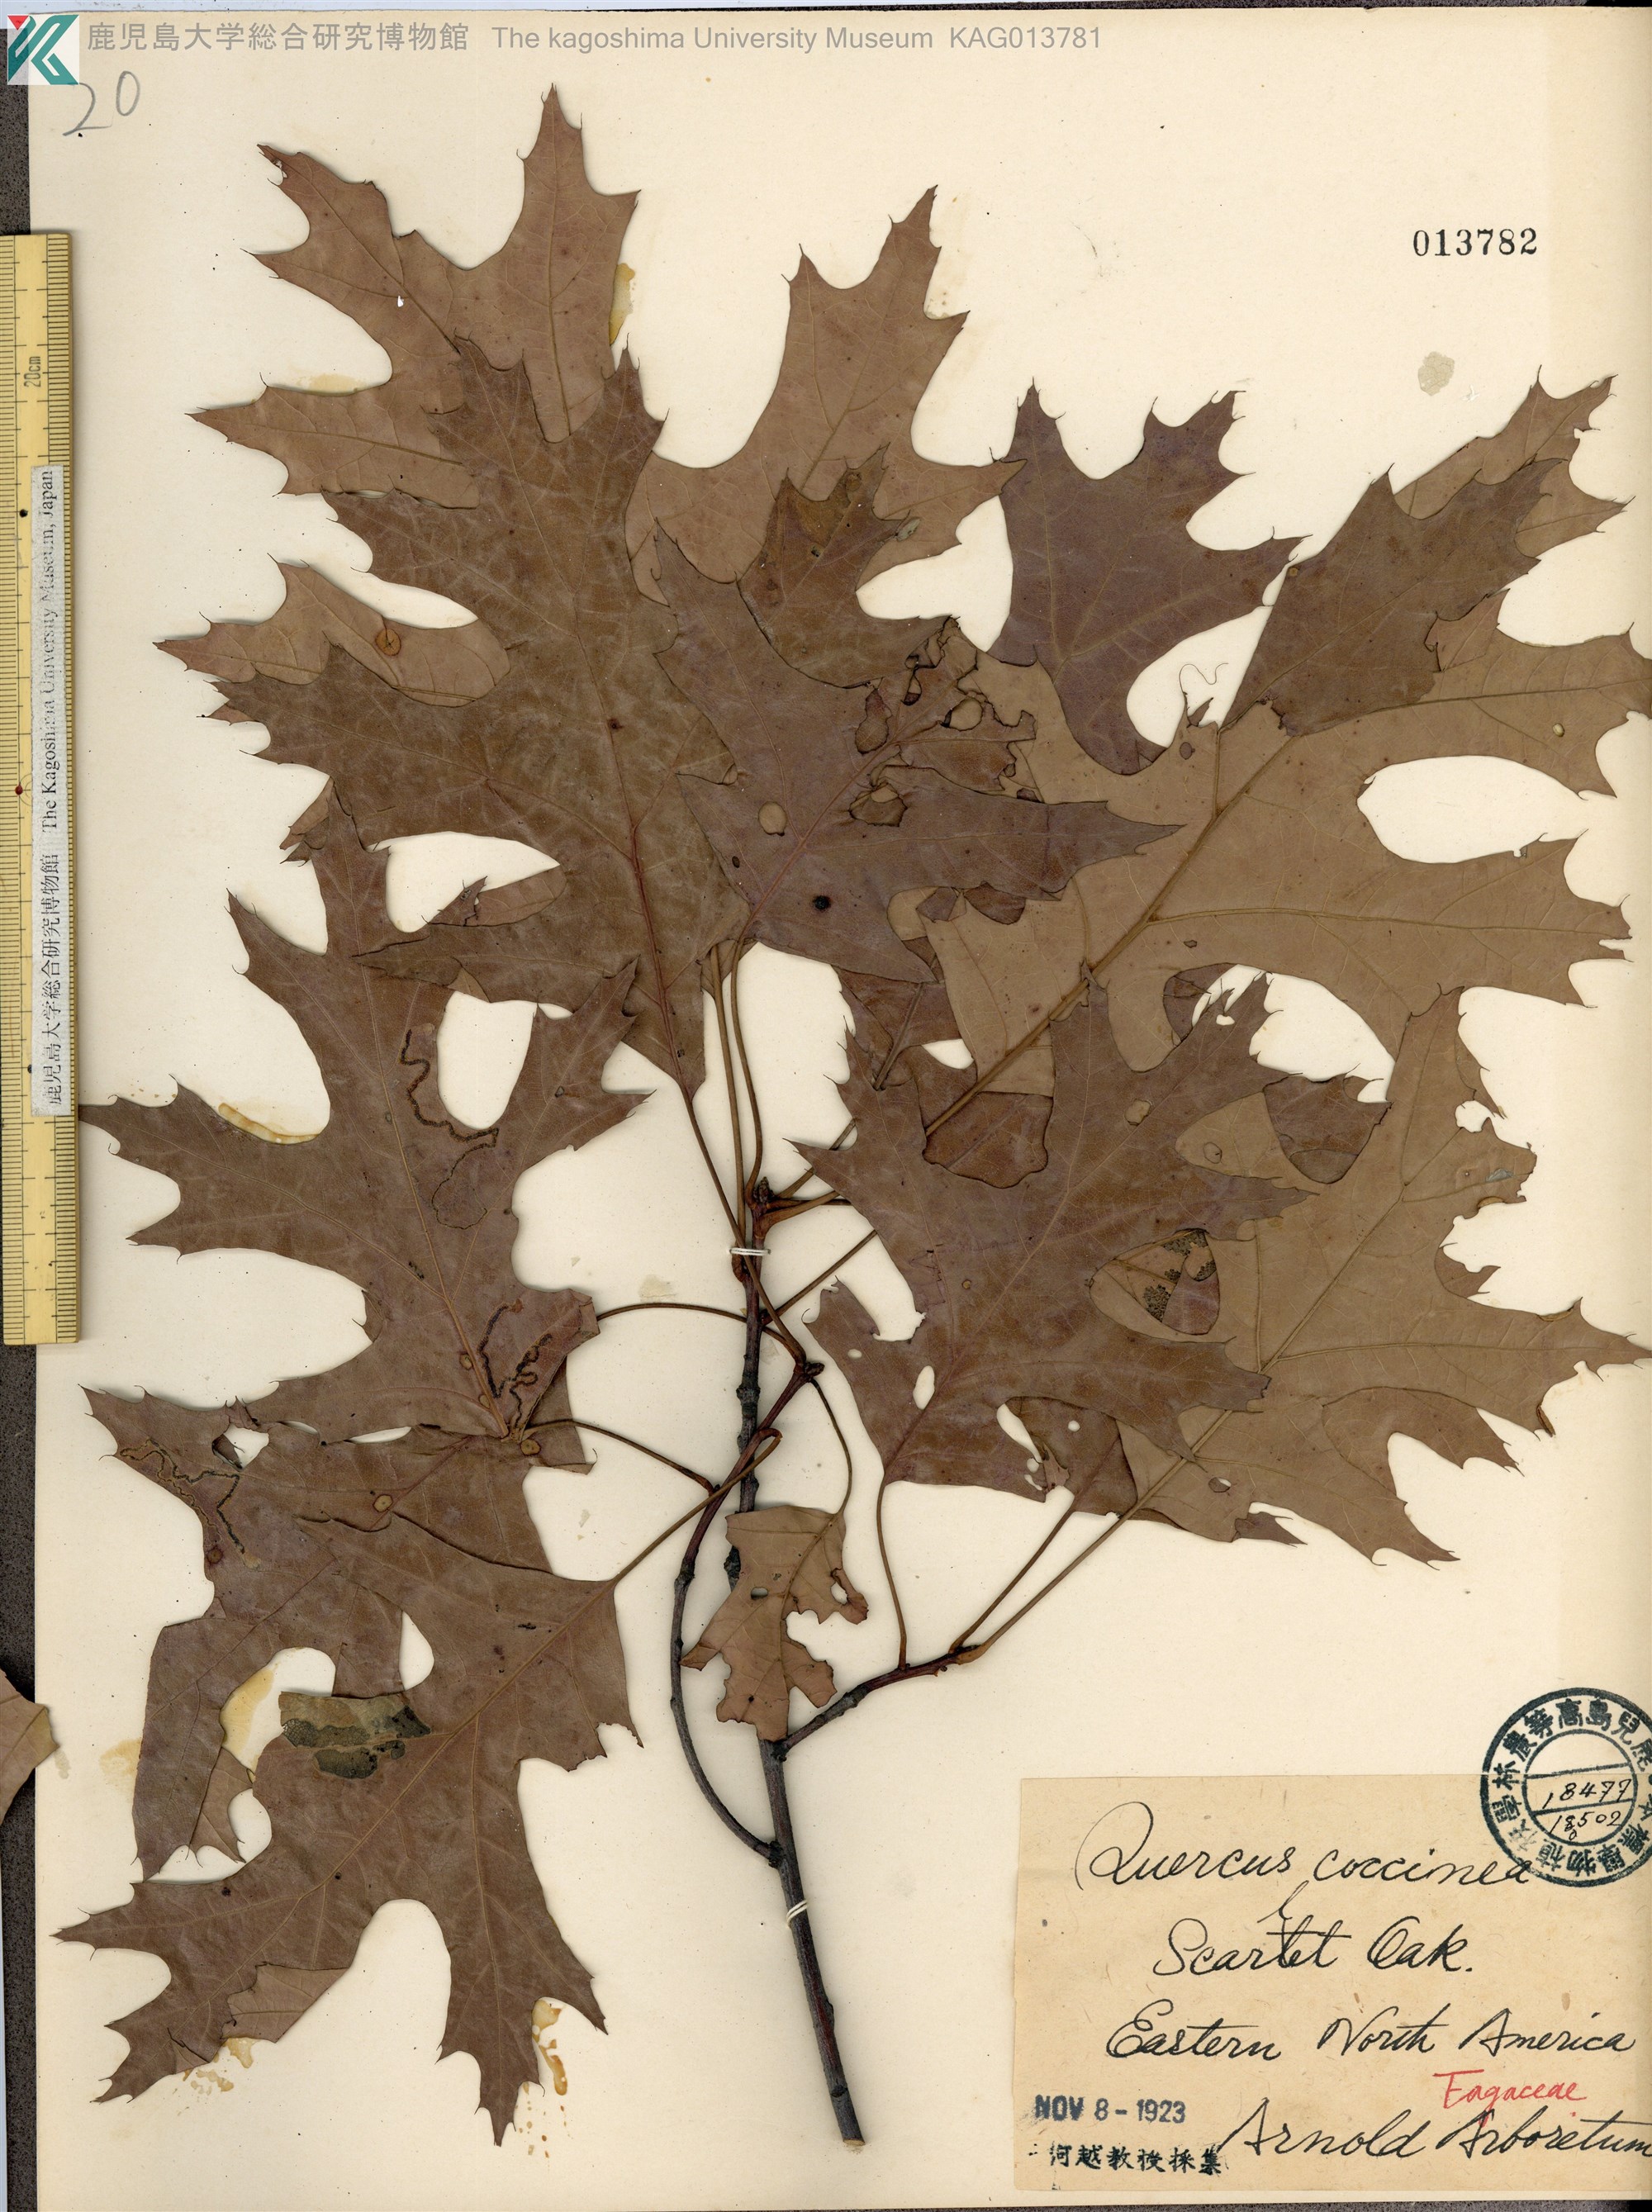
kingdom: Plantae
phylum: Tracheophyta
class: Magnoliopsida
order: Fagales
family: Fagaceae
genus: Quercus
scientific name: Quercus coccinea
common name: Scarlet oak
